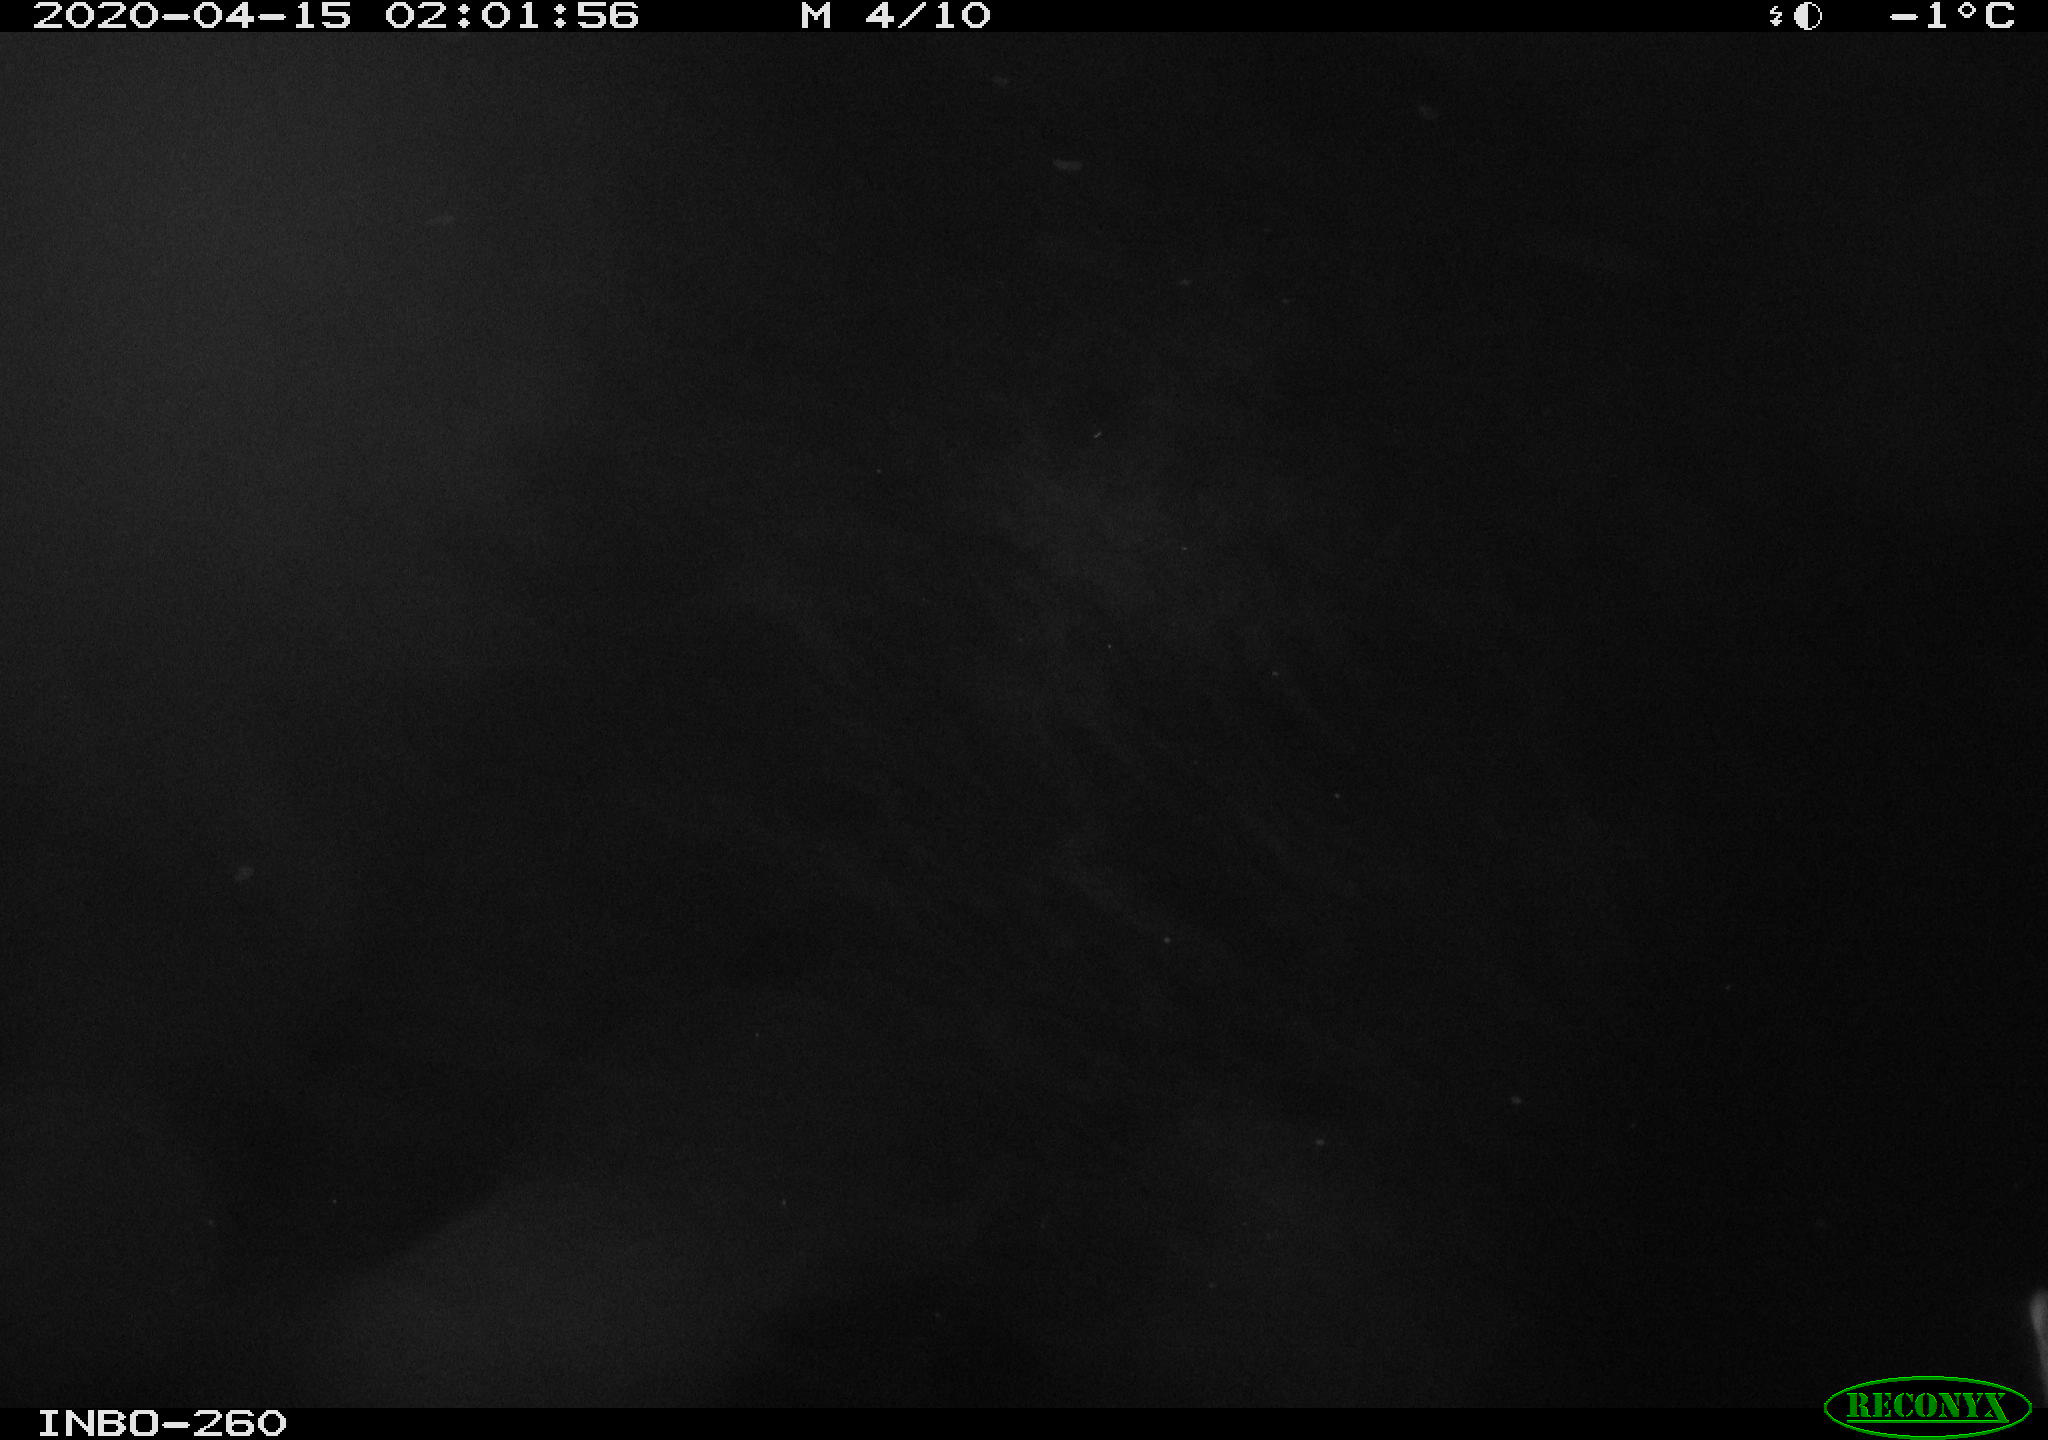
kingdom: Animalia
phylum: Chordata
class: Aves
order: Anseriformes
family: Anatidae
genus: Anas
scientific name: Anas platyrhynchos
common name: Mallard
